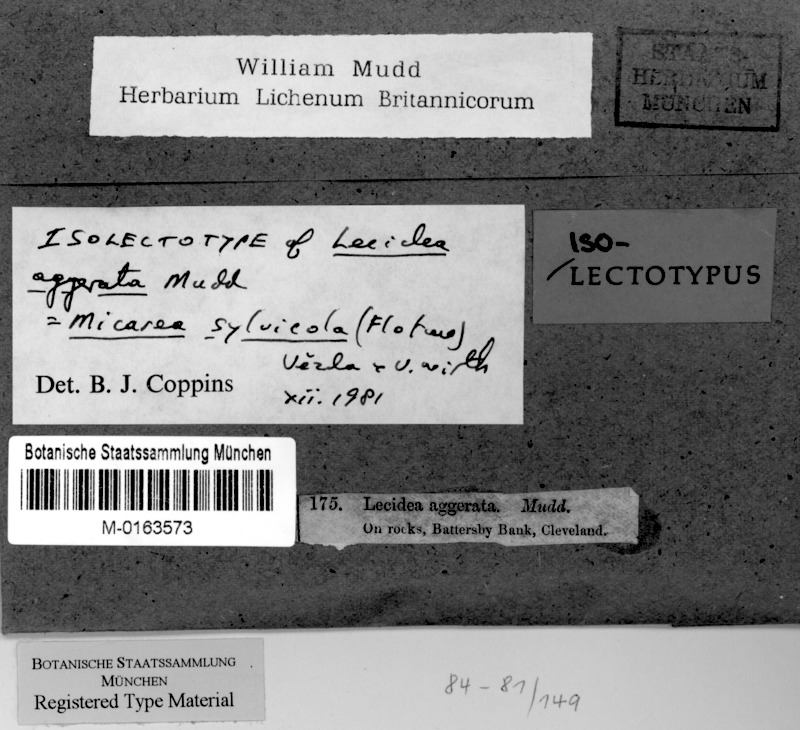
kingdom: Fungi
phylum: Ascomycota
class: Lecanoromycetes
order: Lecanorales
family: Psoraceae
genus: Brianaria
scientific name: Brianaria sylvicola
